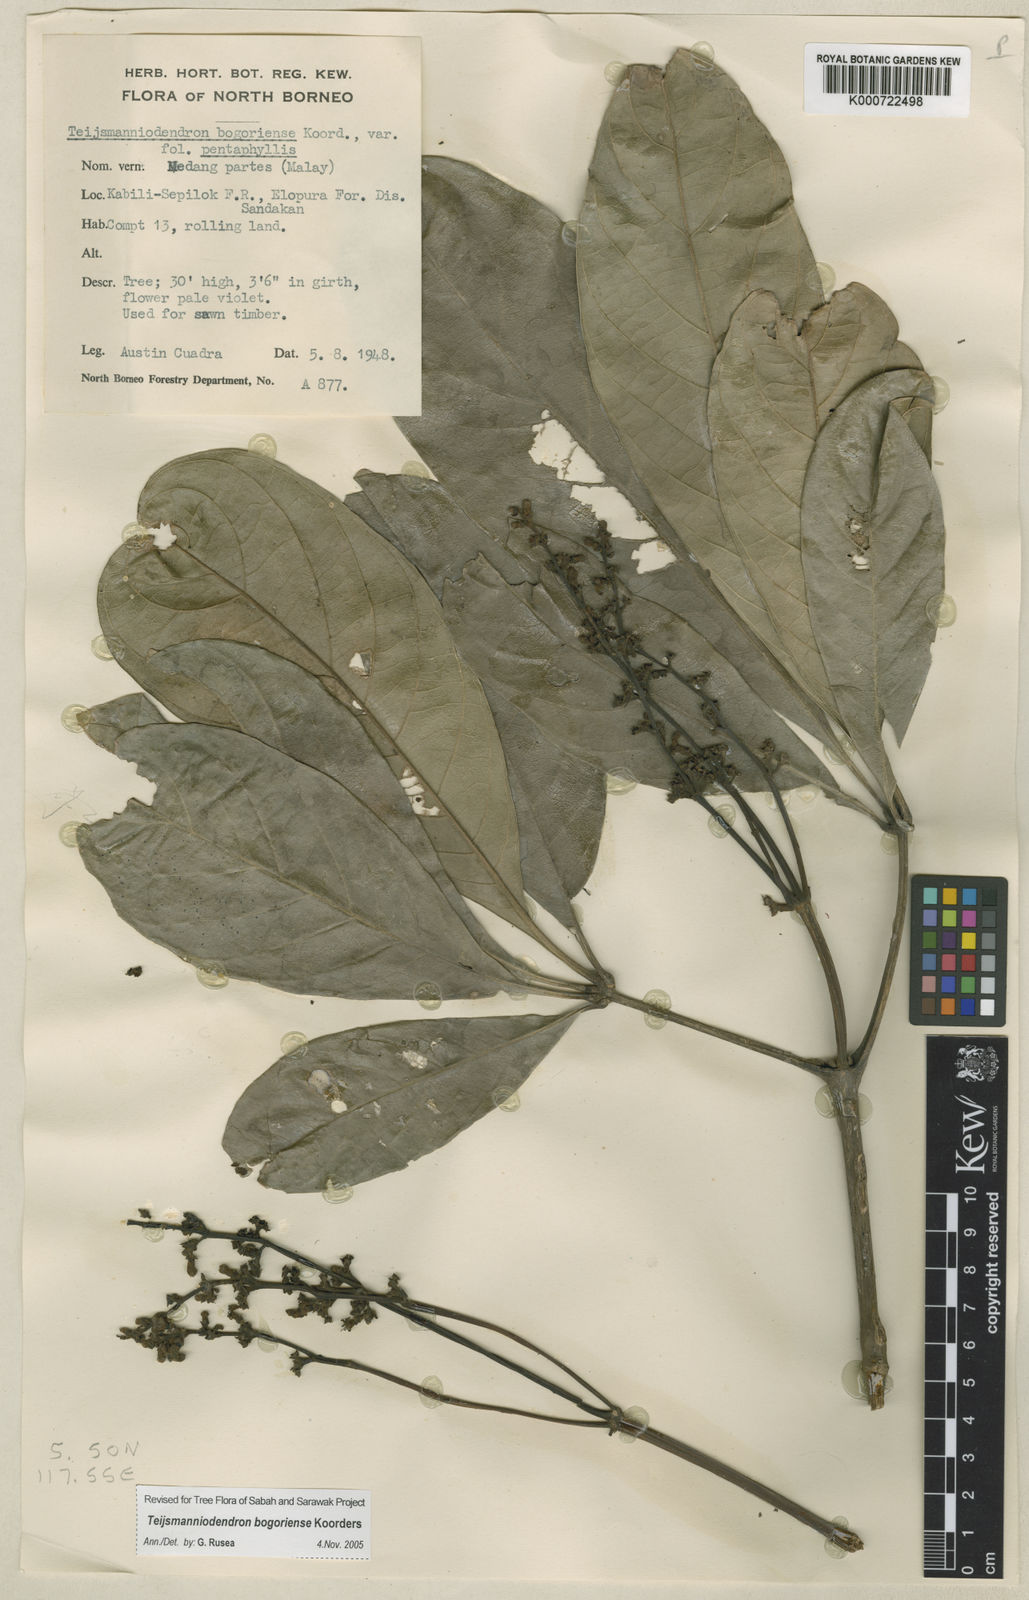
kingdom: Plantae
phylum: Tracheophyta
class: Magnoliopsida
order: Lamiales
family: Lamiaceae
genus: Teijsmanniodendron
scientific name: Teijsmanniodendron bogoriense
